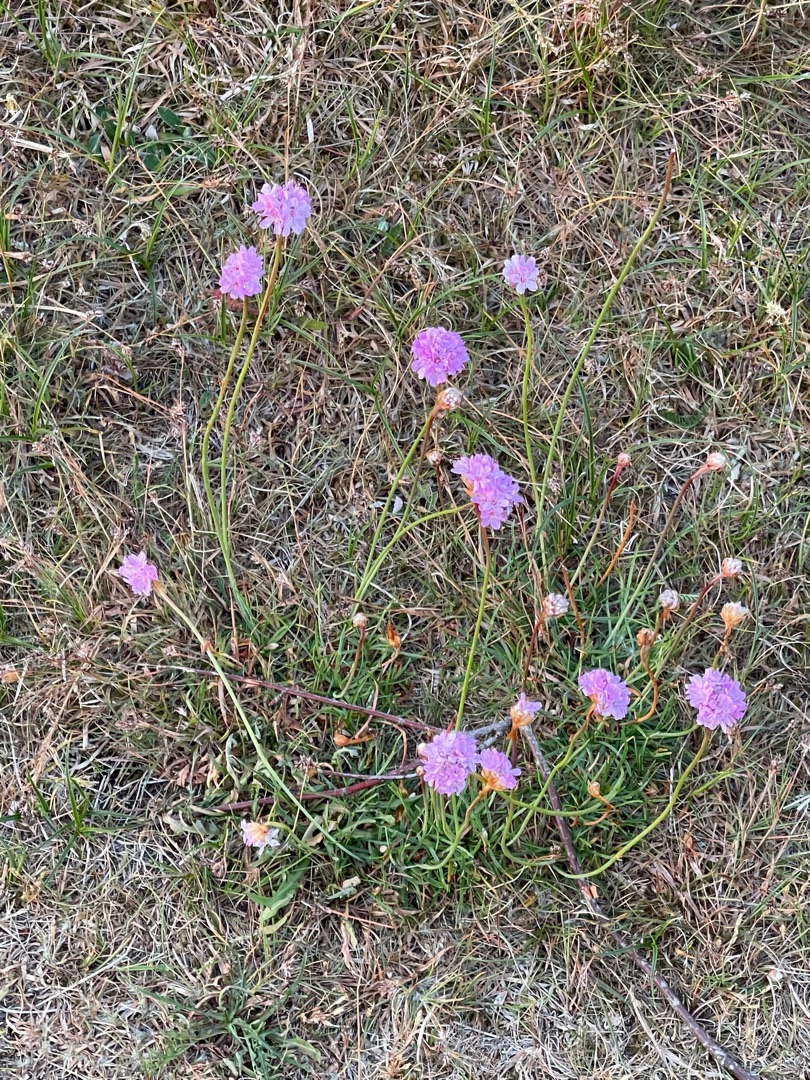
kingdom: Plantae
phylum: Tracheophyta
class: Magnoliopsida
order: Caryophyllales
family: Plumbaginaceae
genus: Armeria
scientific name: Armeria maritima
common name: Engelskgræs
